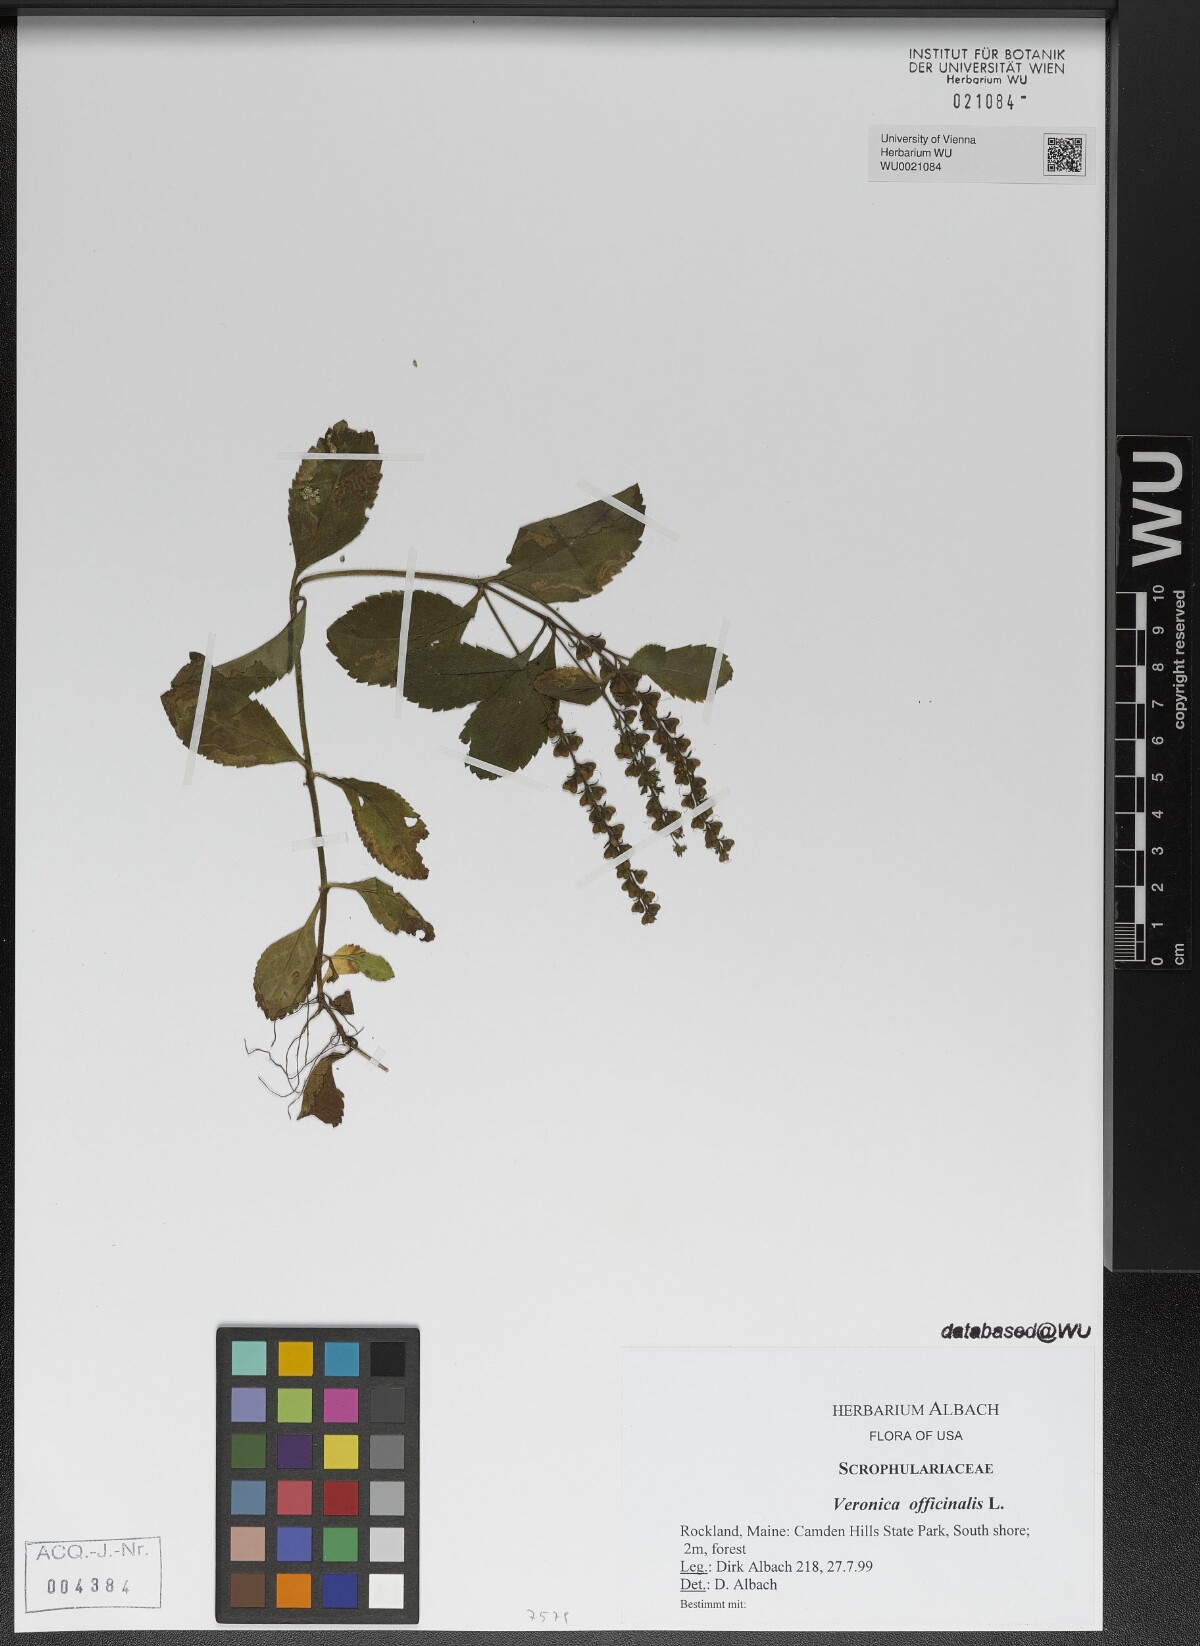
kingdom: Plantae
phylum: Tracheophyta
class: Magnoliopsida
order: Lamiales
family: Plantaginaceae
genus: Veronica
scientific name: Veronica officinalis
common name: Common speedwell
